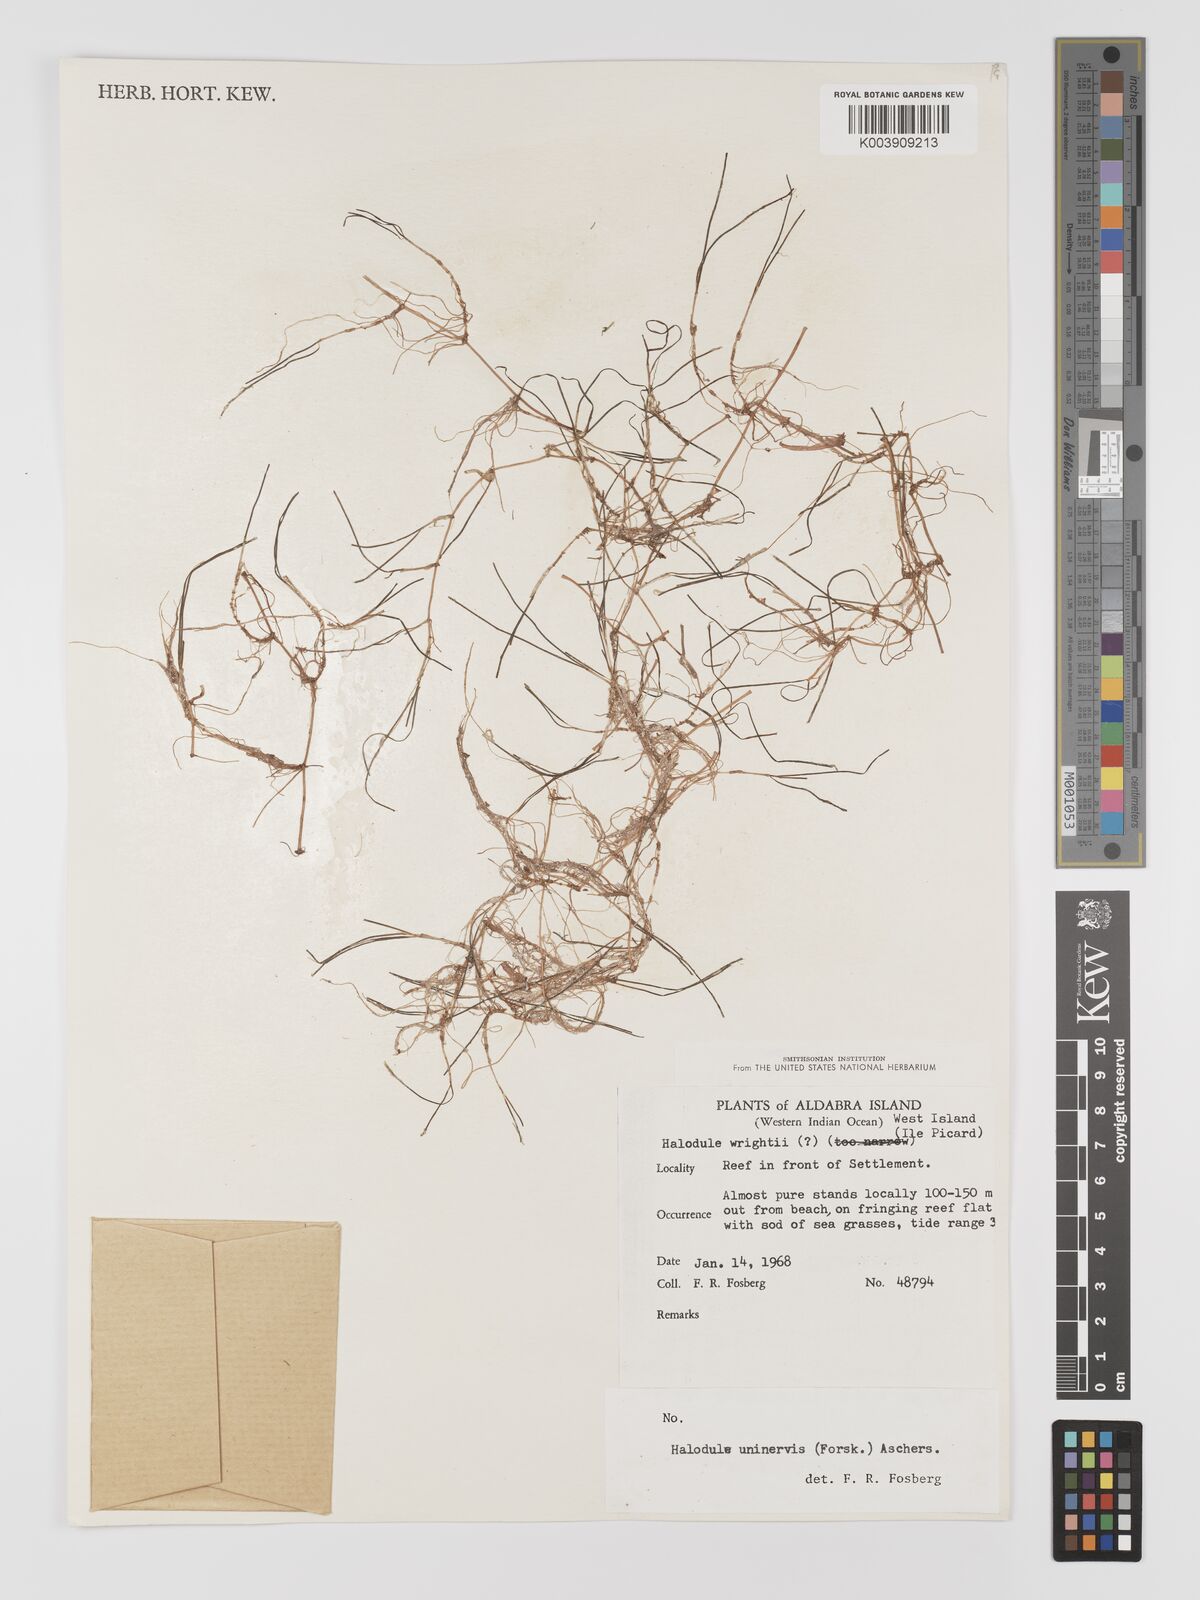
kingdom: Plantae
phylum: Tracheophyta
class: Liliopsida
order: Alismatales
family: Cymodoceaceae
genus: Halodule
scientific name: Halodule uninervis
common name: Narrowleaf seagrass
